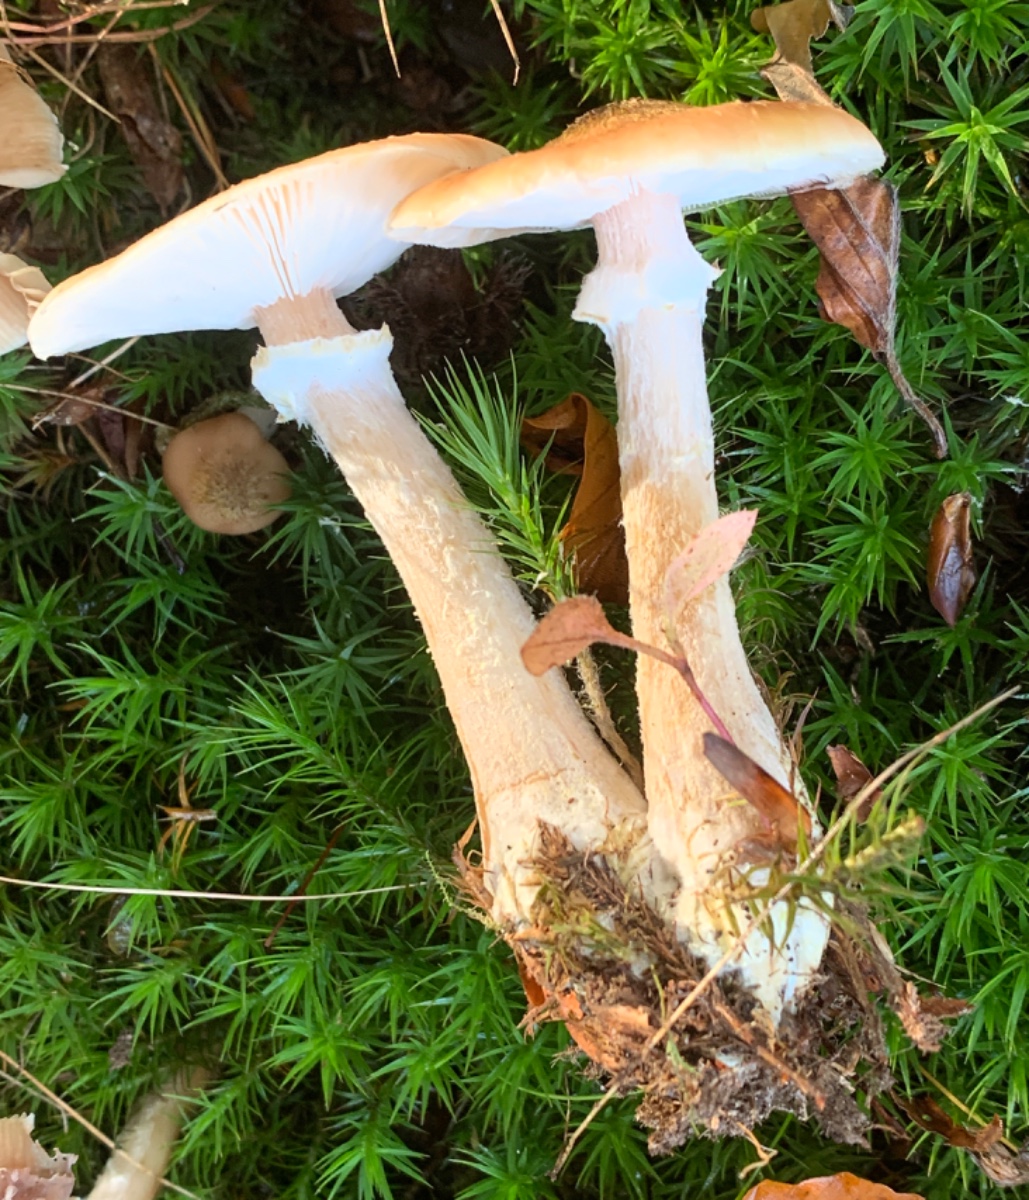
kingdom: Fungi
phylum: Basidiomycota
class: Agaricomycetes
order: Agaricales
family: Physalacriaceae
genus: Armillaria
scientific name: Armillaria lutea
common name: køllestokket honningsvamp
